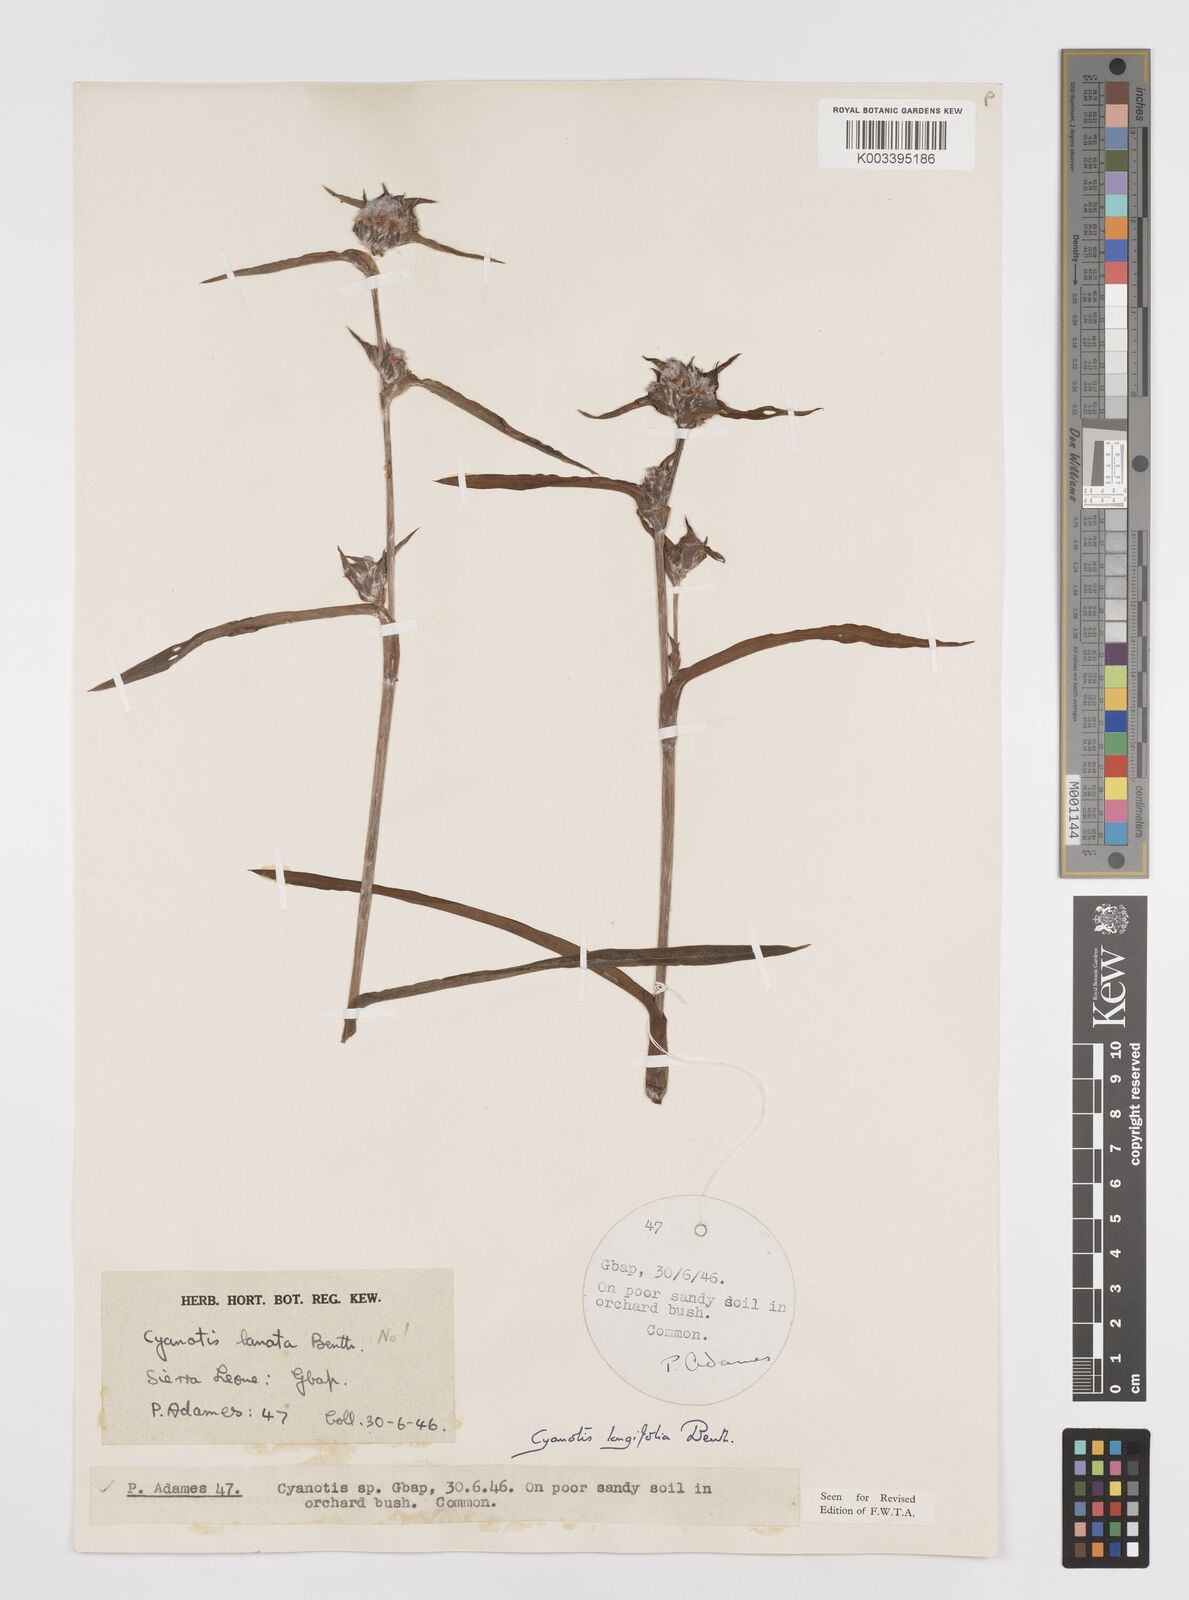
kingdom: Plantae
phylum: Tracheophyta
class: Liliopsida
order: Commelinales
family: Commelinaceae
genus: Cyanotis
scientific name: Cyanotis
